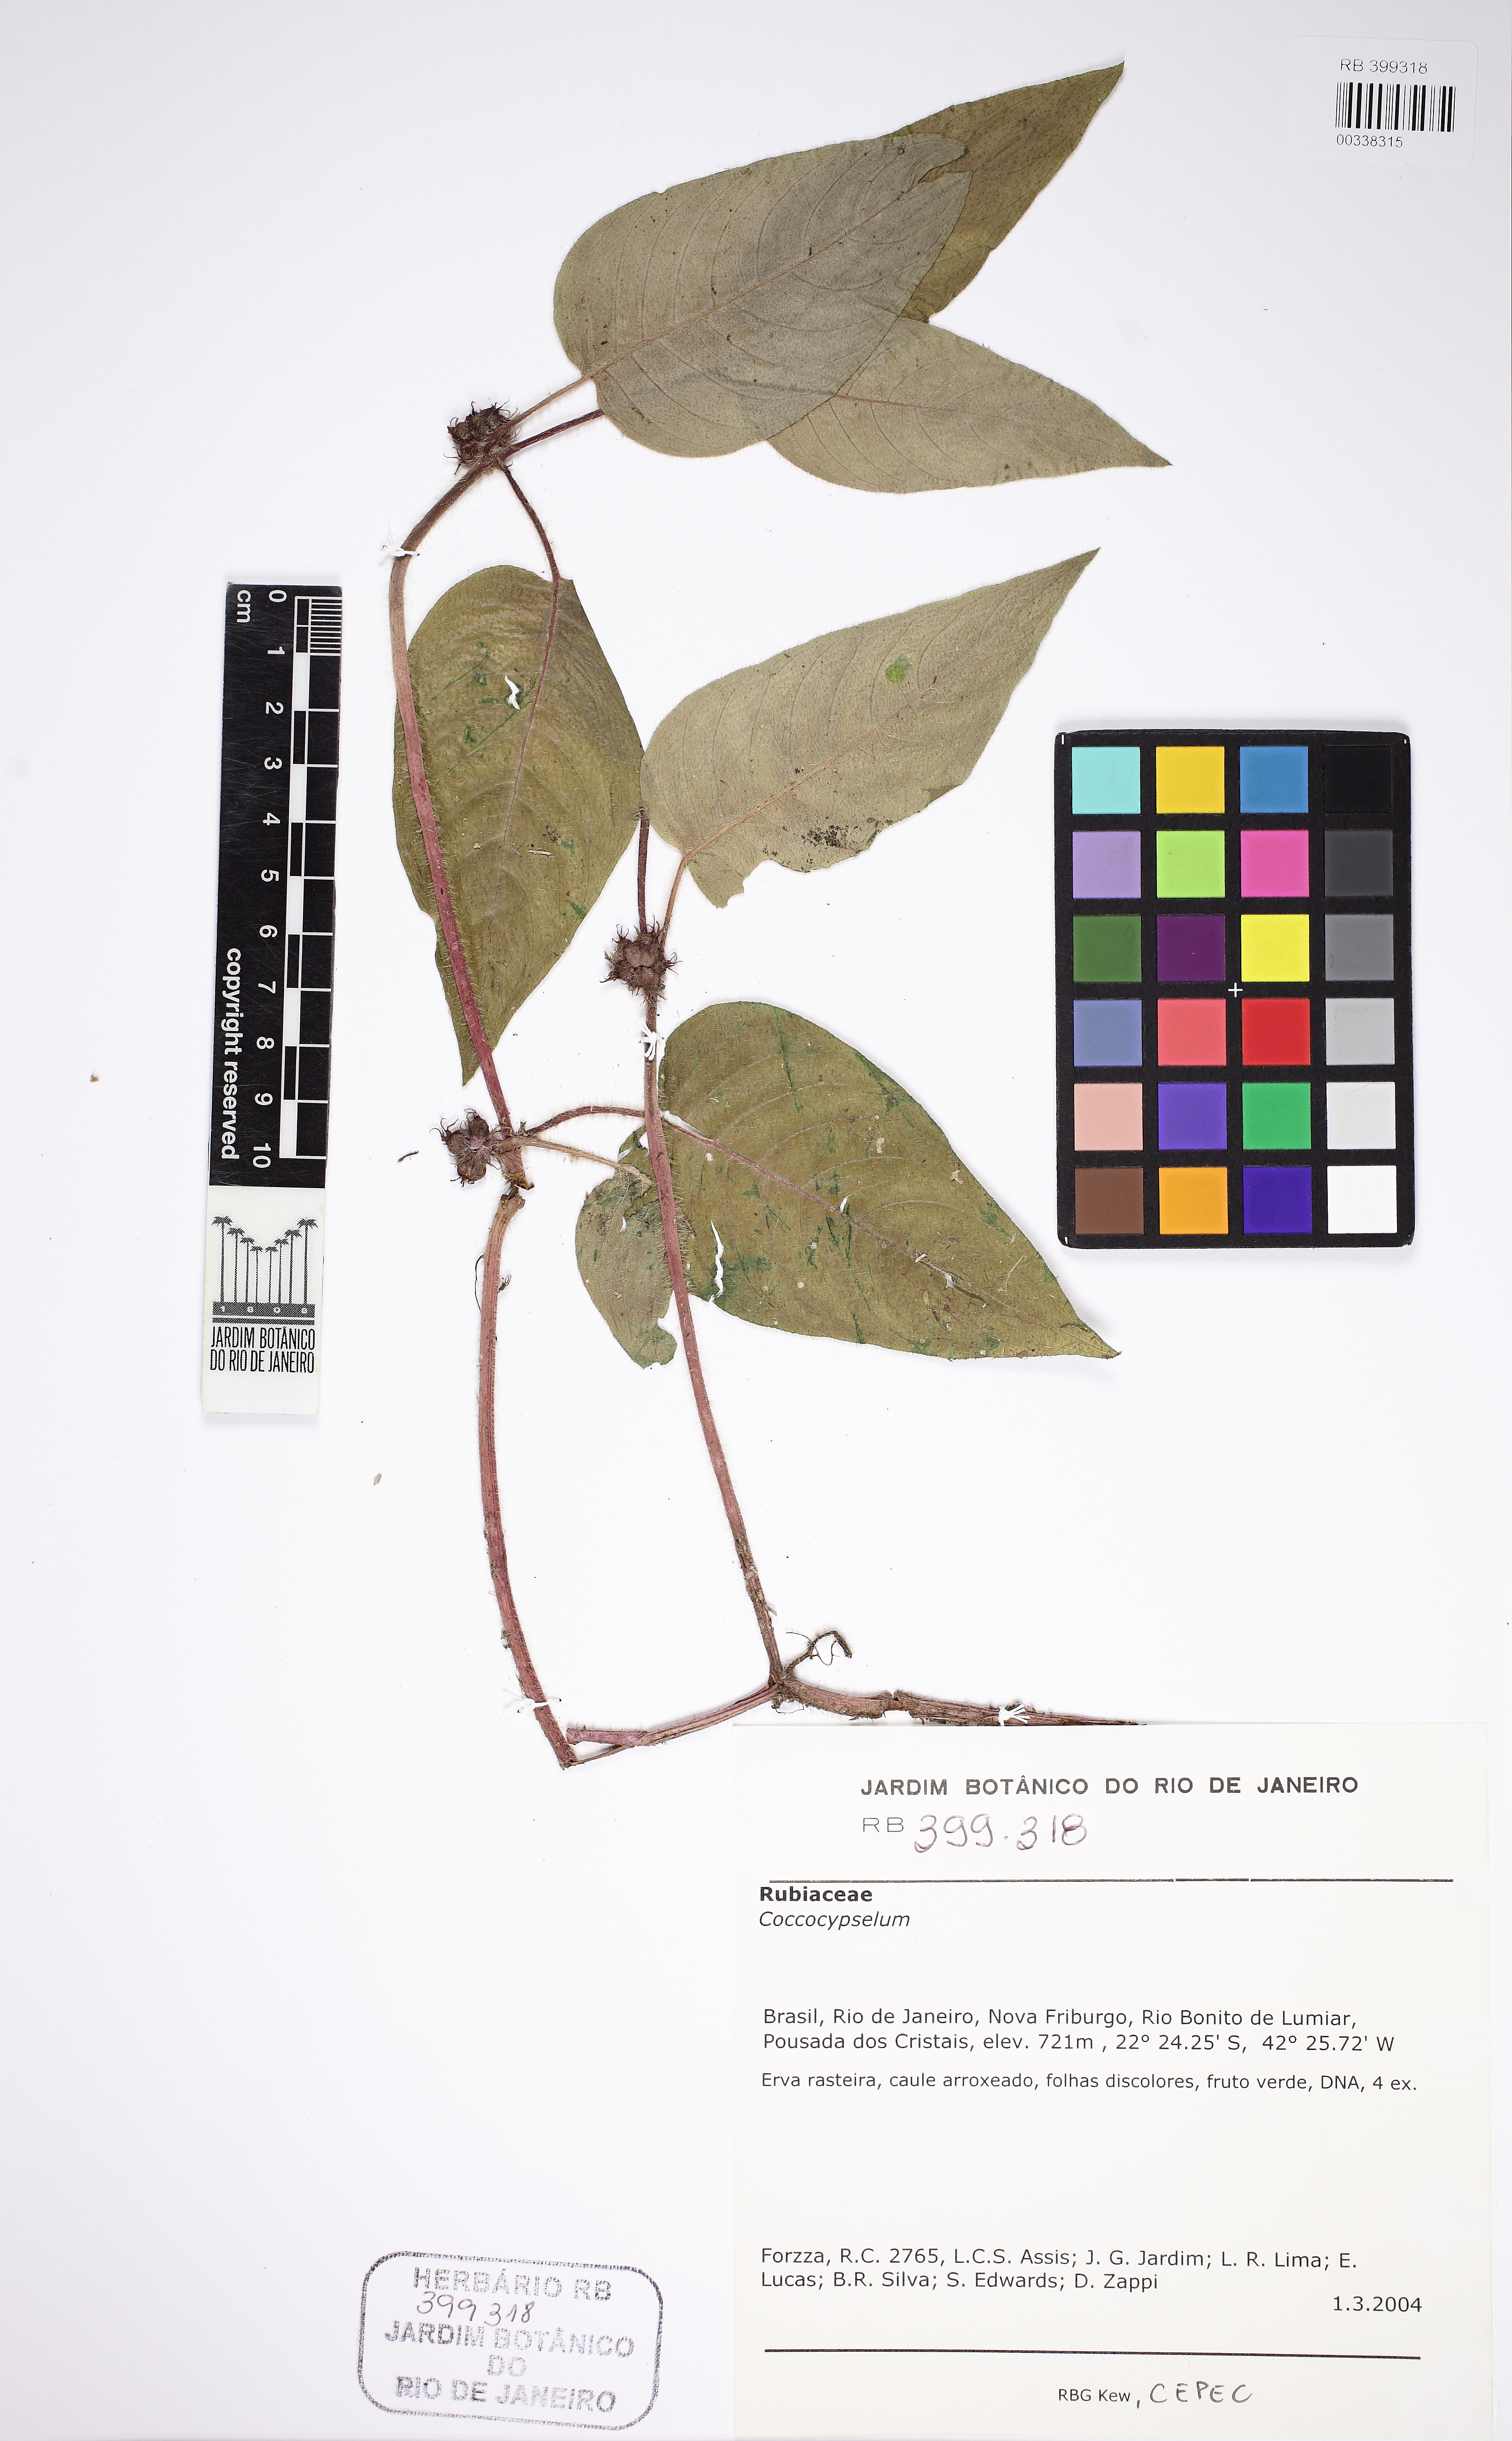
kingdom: Plantae
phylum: Tracheophyta
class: Magnoliopsida
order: Gentianales
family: Rubiaceae
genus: Coccocypselum
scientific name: Coccocypselum
